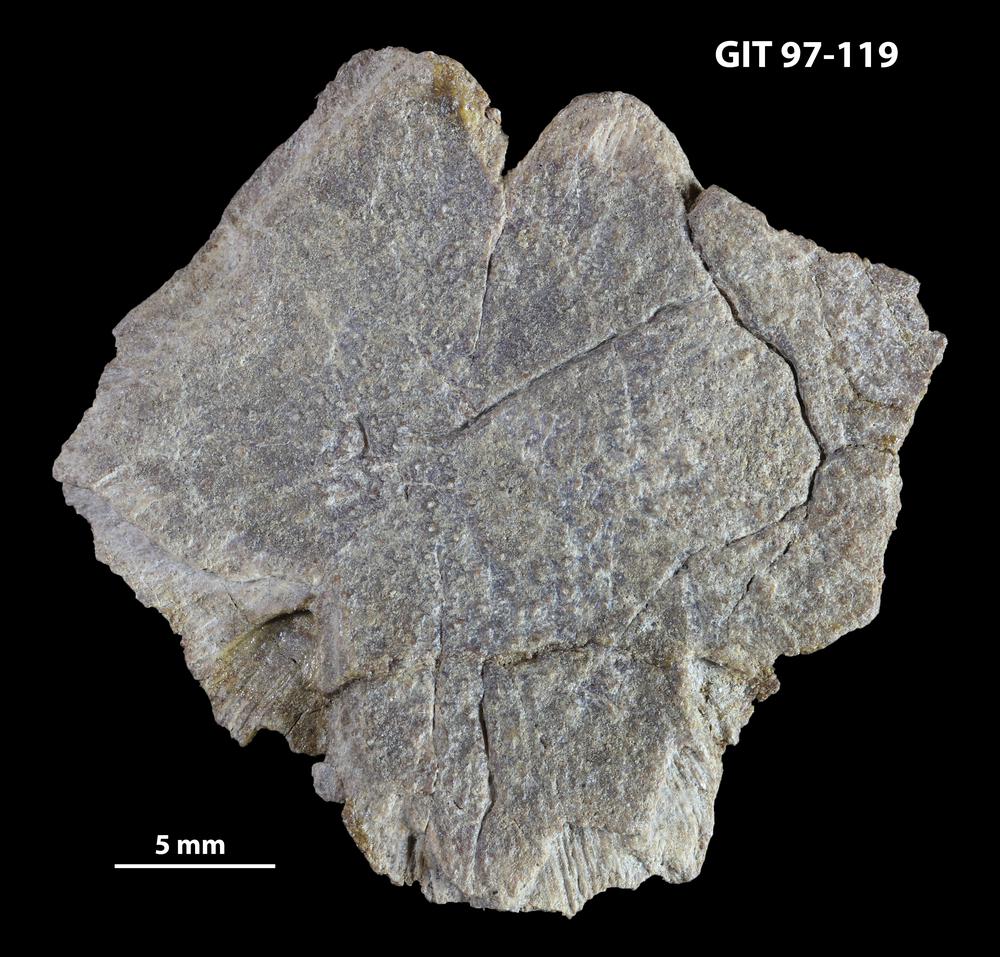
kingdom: Animalia
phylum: Chordata
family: Holonematidae
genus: Holonema
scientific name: Holonema
